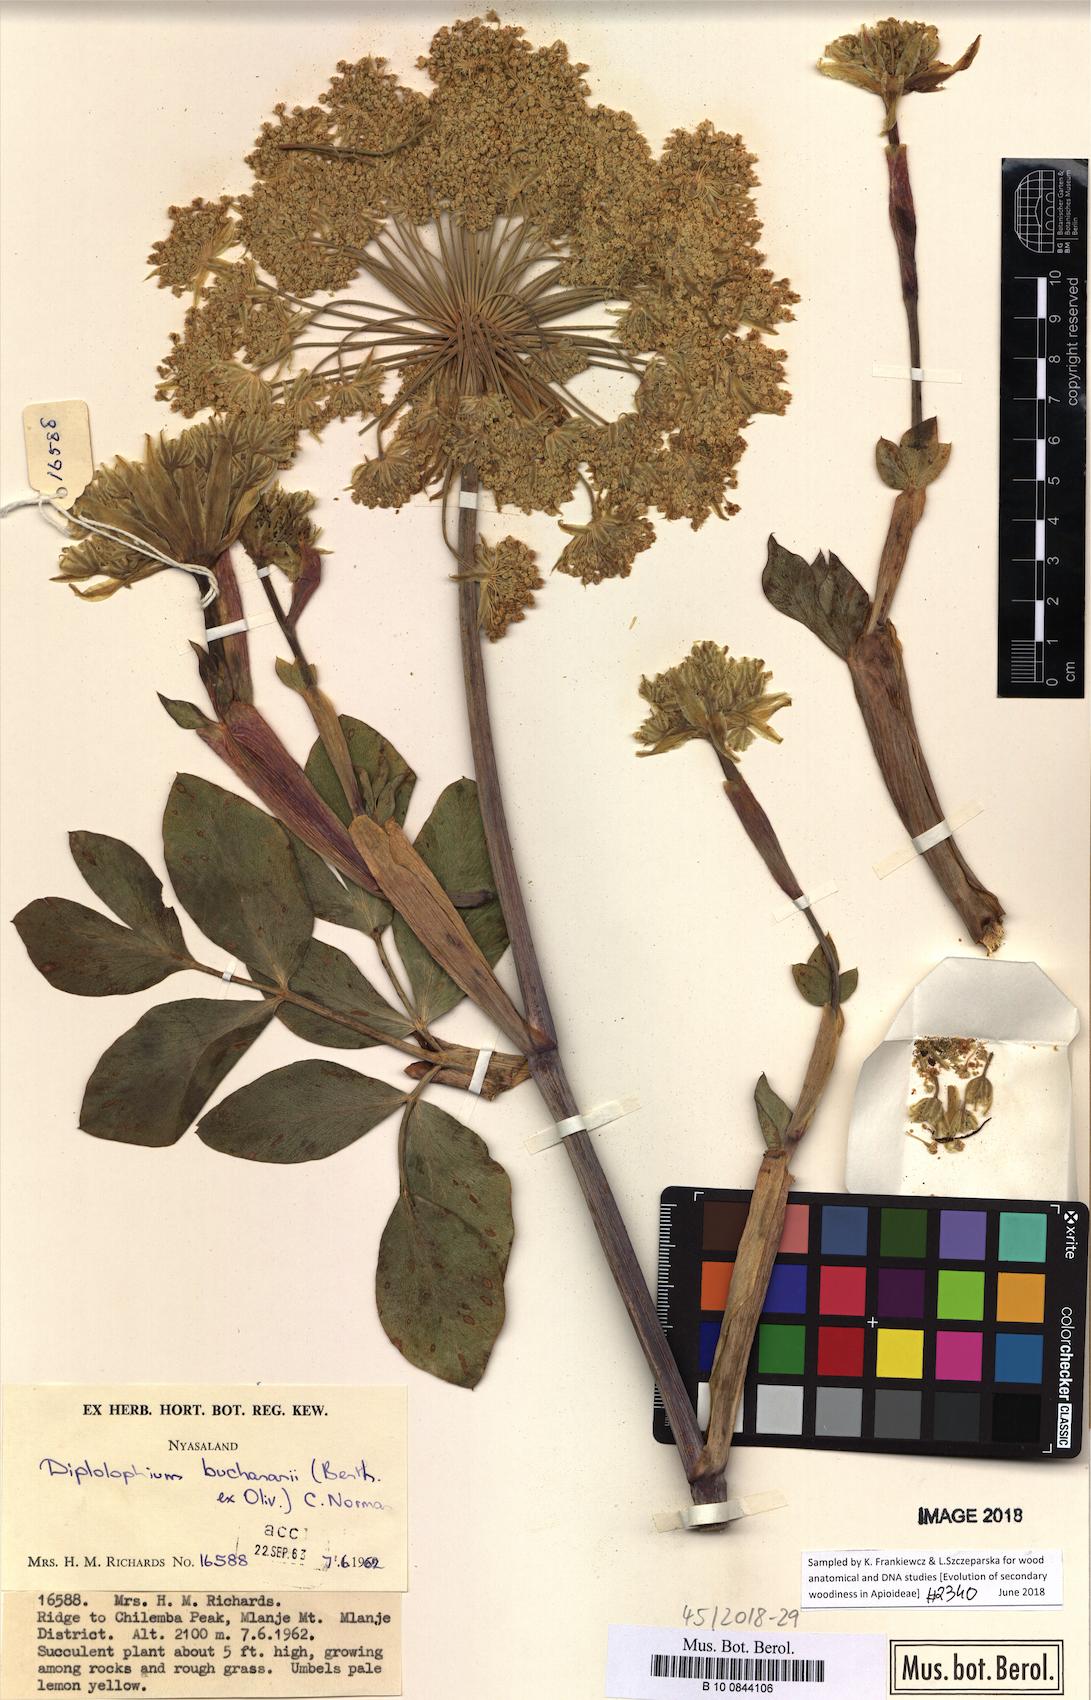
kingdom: Plantae
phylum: Tracheophyta
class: Magnoliopsida
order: Apiales
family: Apiaceae
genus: Diplolophium
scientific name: Diplolophium buchananii
